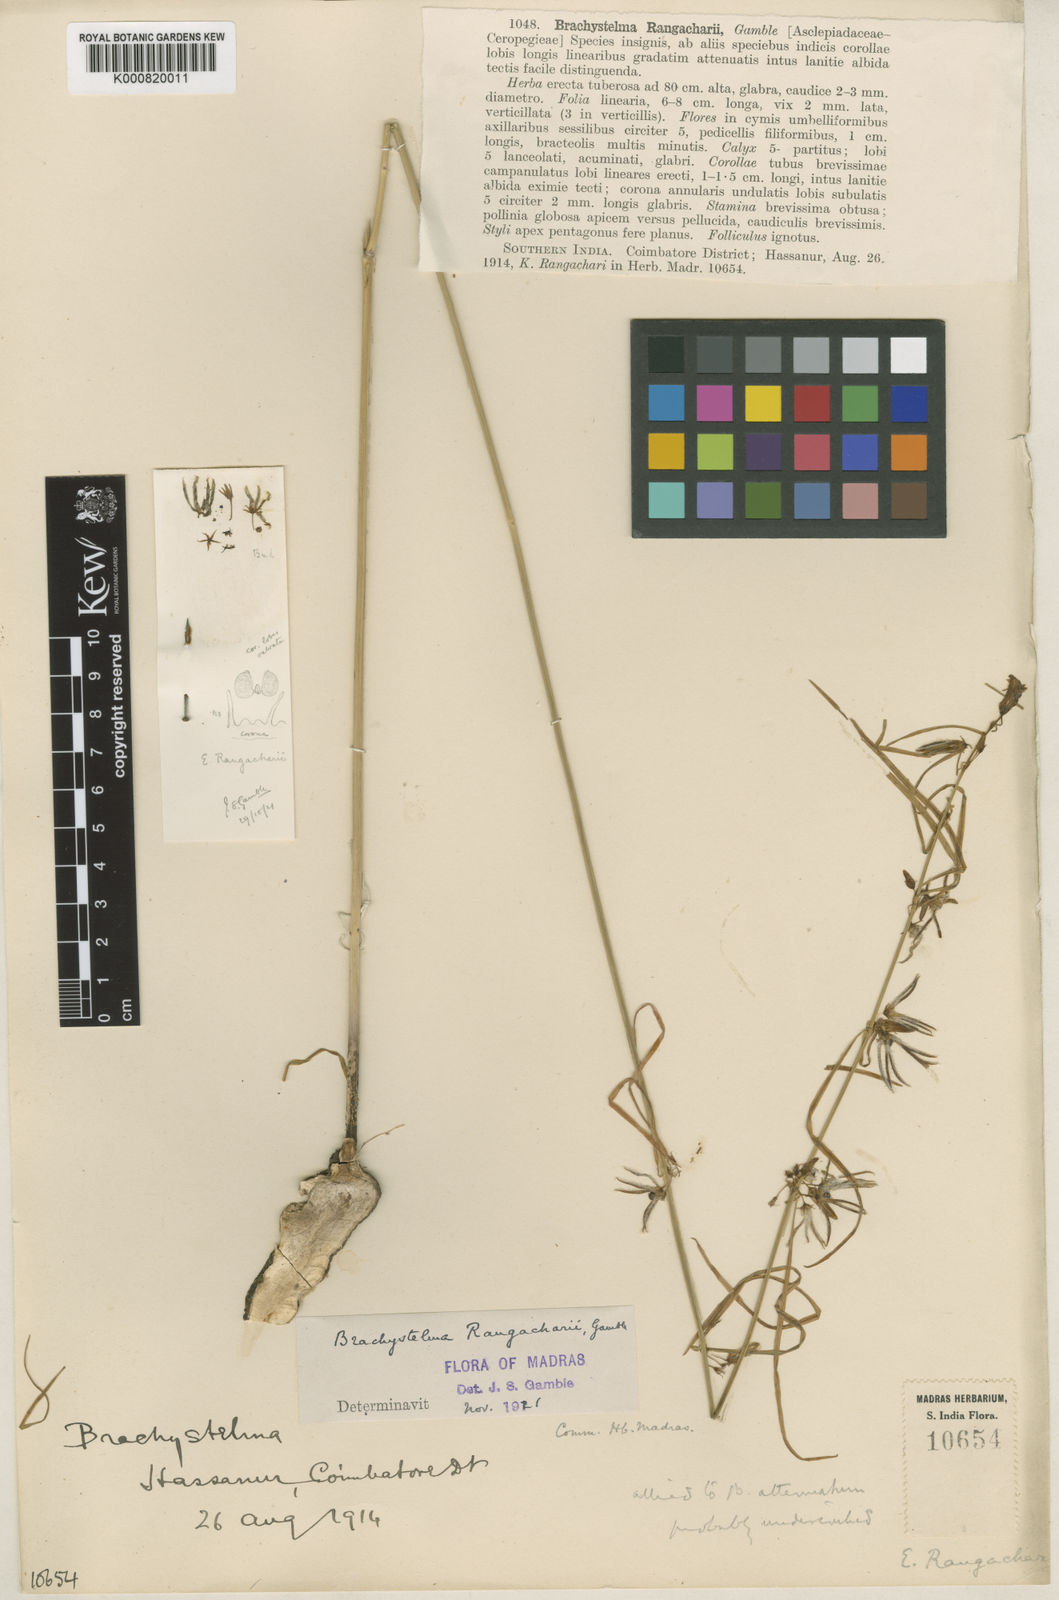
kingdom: Plantae
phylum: Tracheophyta
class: Magnoliopsida
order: Gentianales
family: Apocynaceae
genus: Ceropegia
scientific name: Ceropegia bourneae
